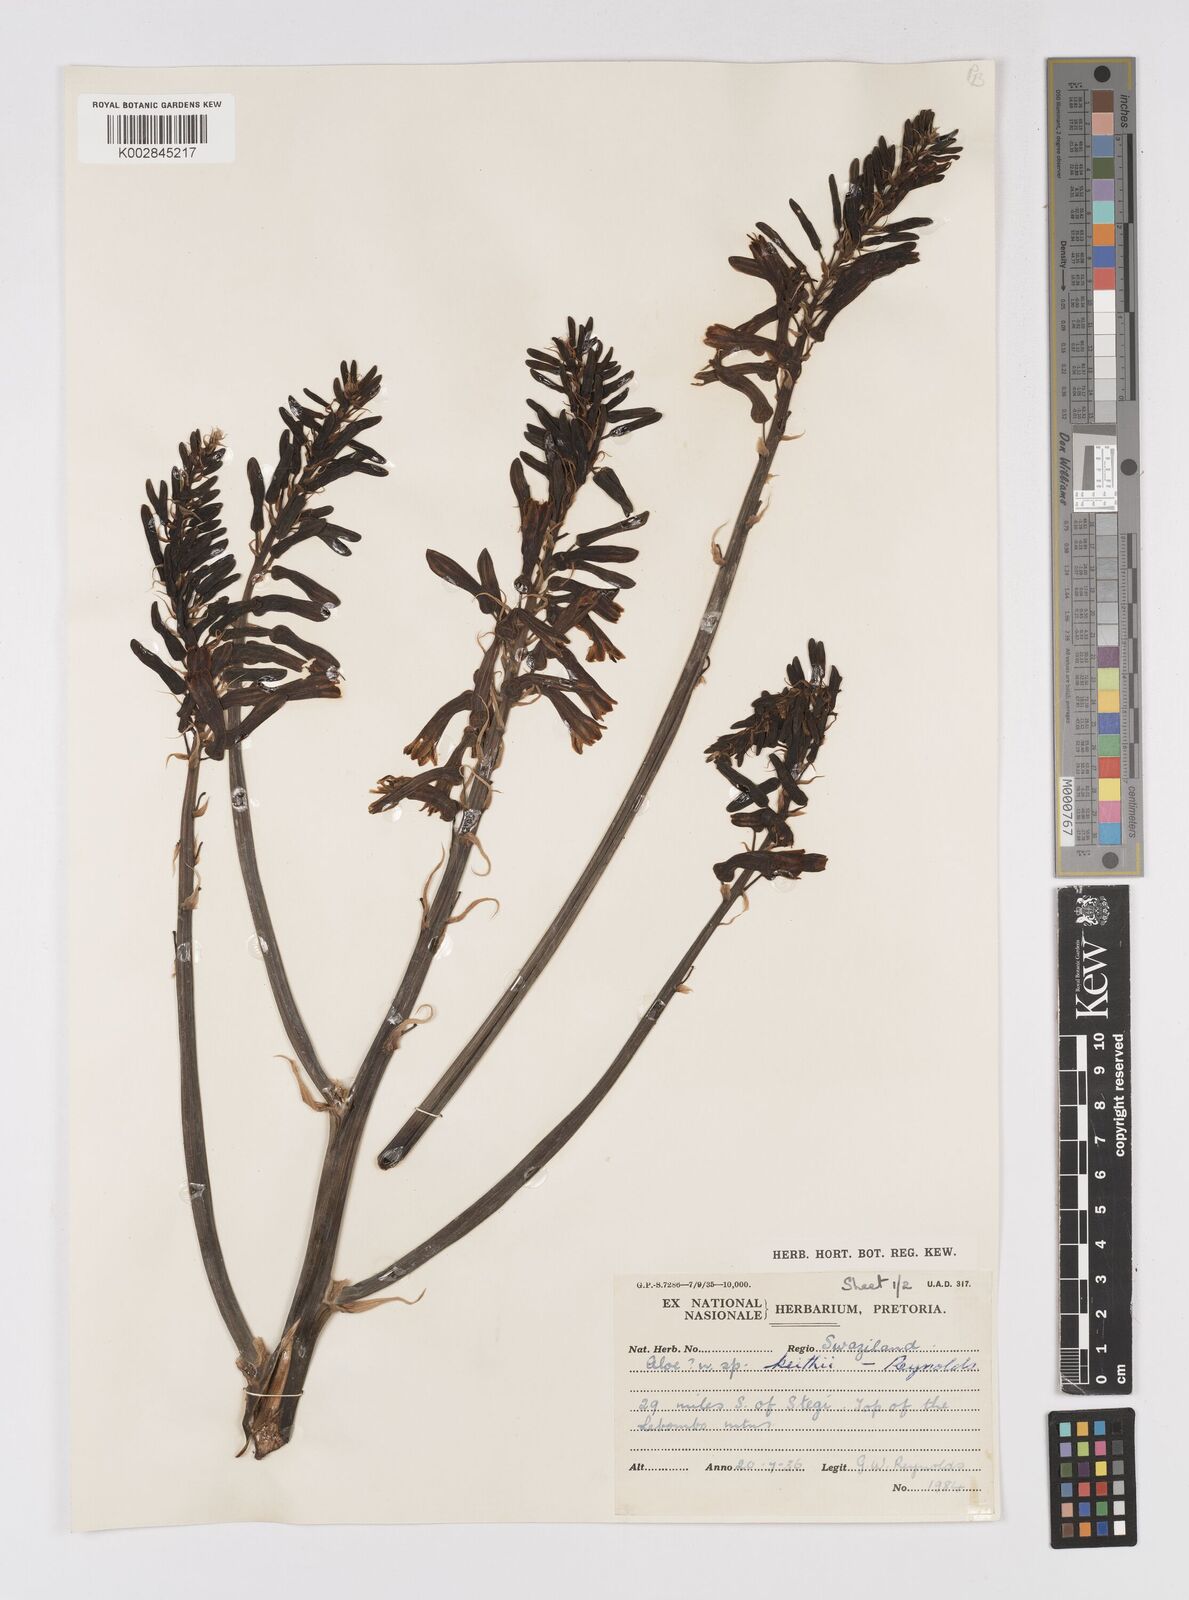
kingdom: Plantae
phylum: Tracheophyta
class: Liliopsida
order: Asparagales
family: Asphodelaceae
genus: Aloe
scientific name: Aloe parvibracteata
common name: Lowveld spotted aloe
